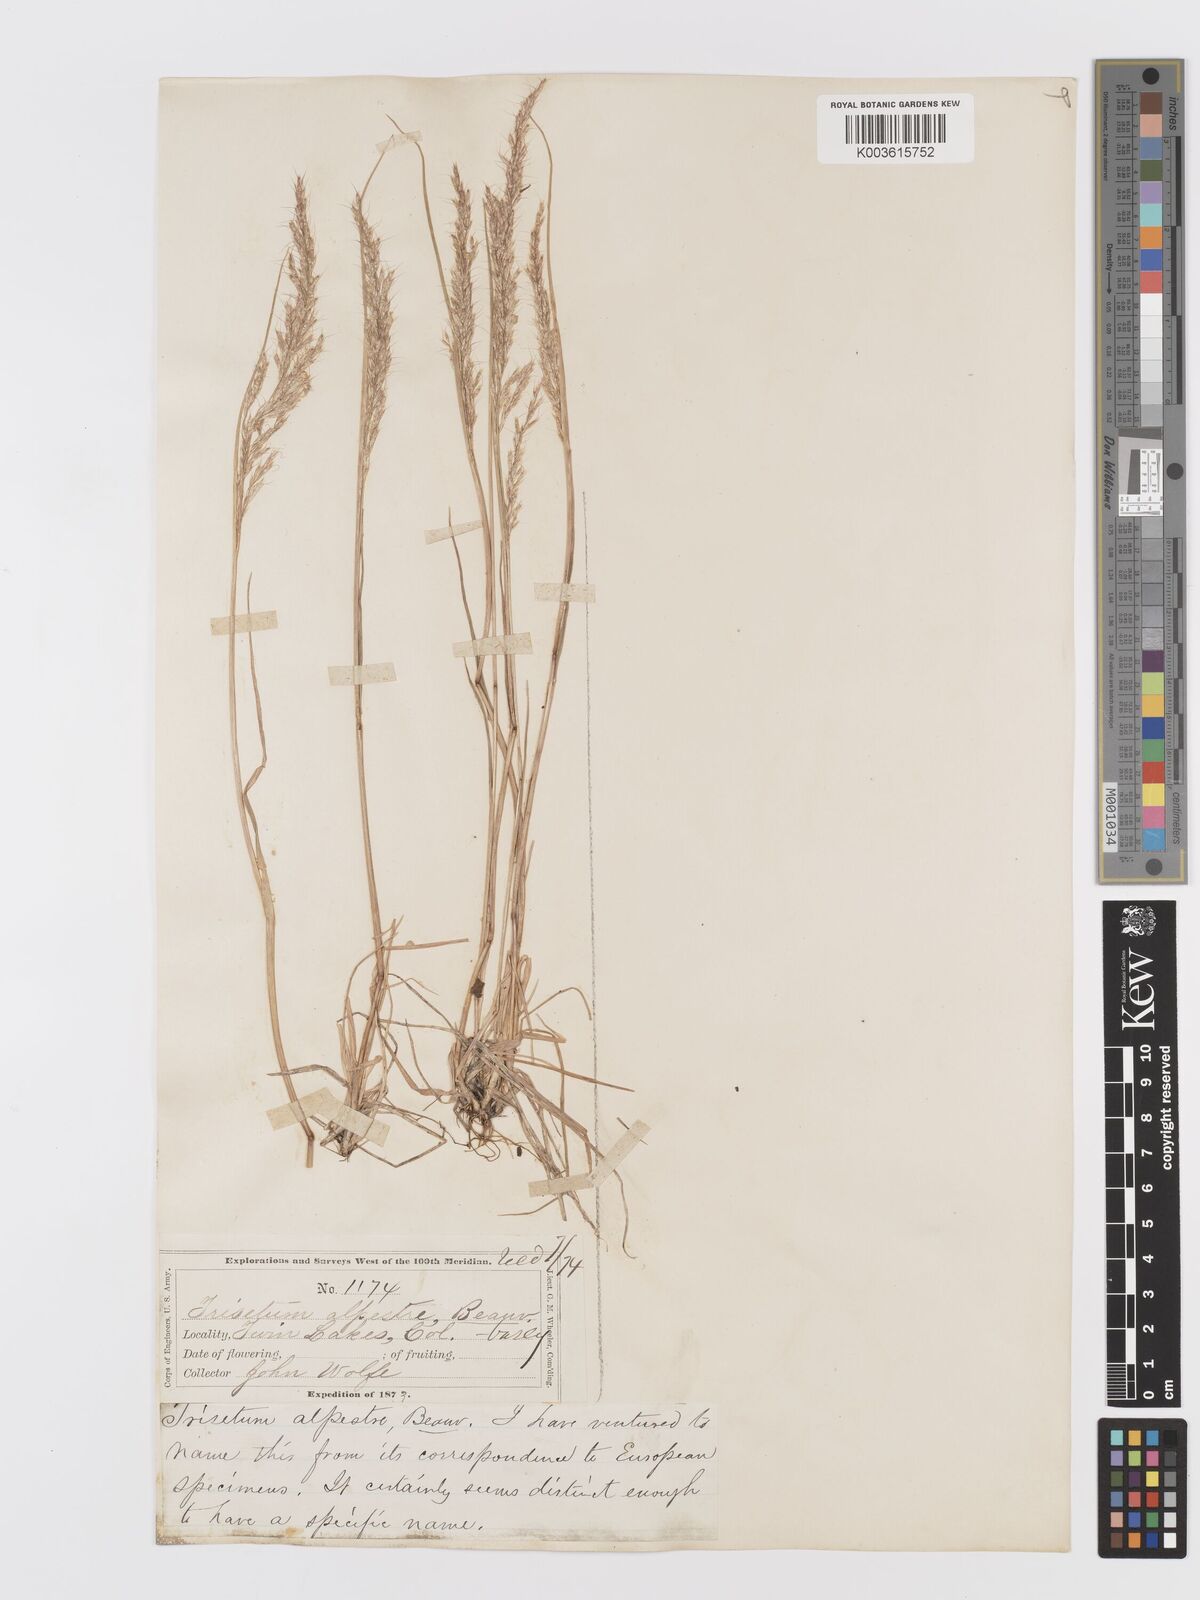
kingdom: Plantae
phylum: Tracheophyta
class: Liliopsida
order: Poales
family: Poaceae
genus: Koeleria
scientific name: Koeleria vaseyi
